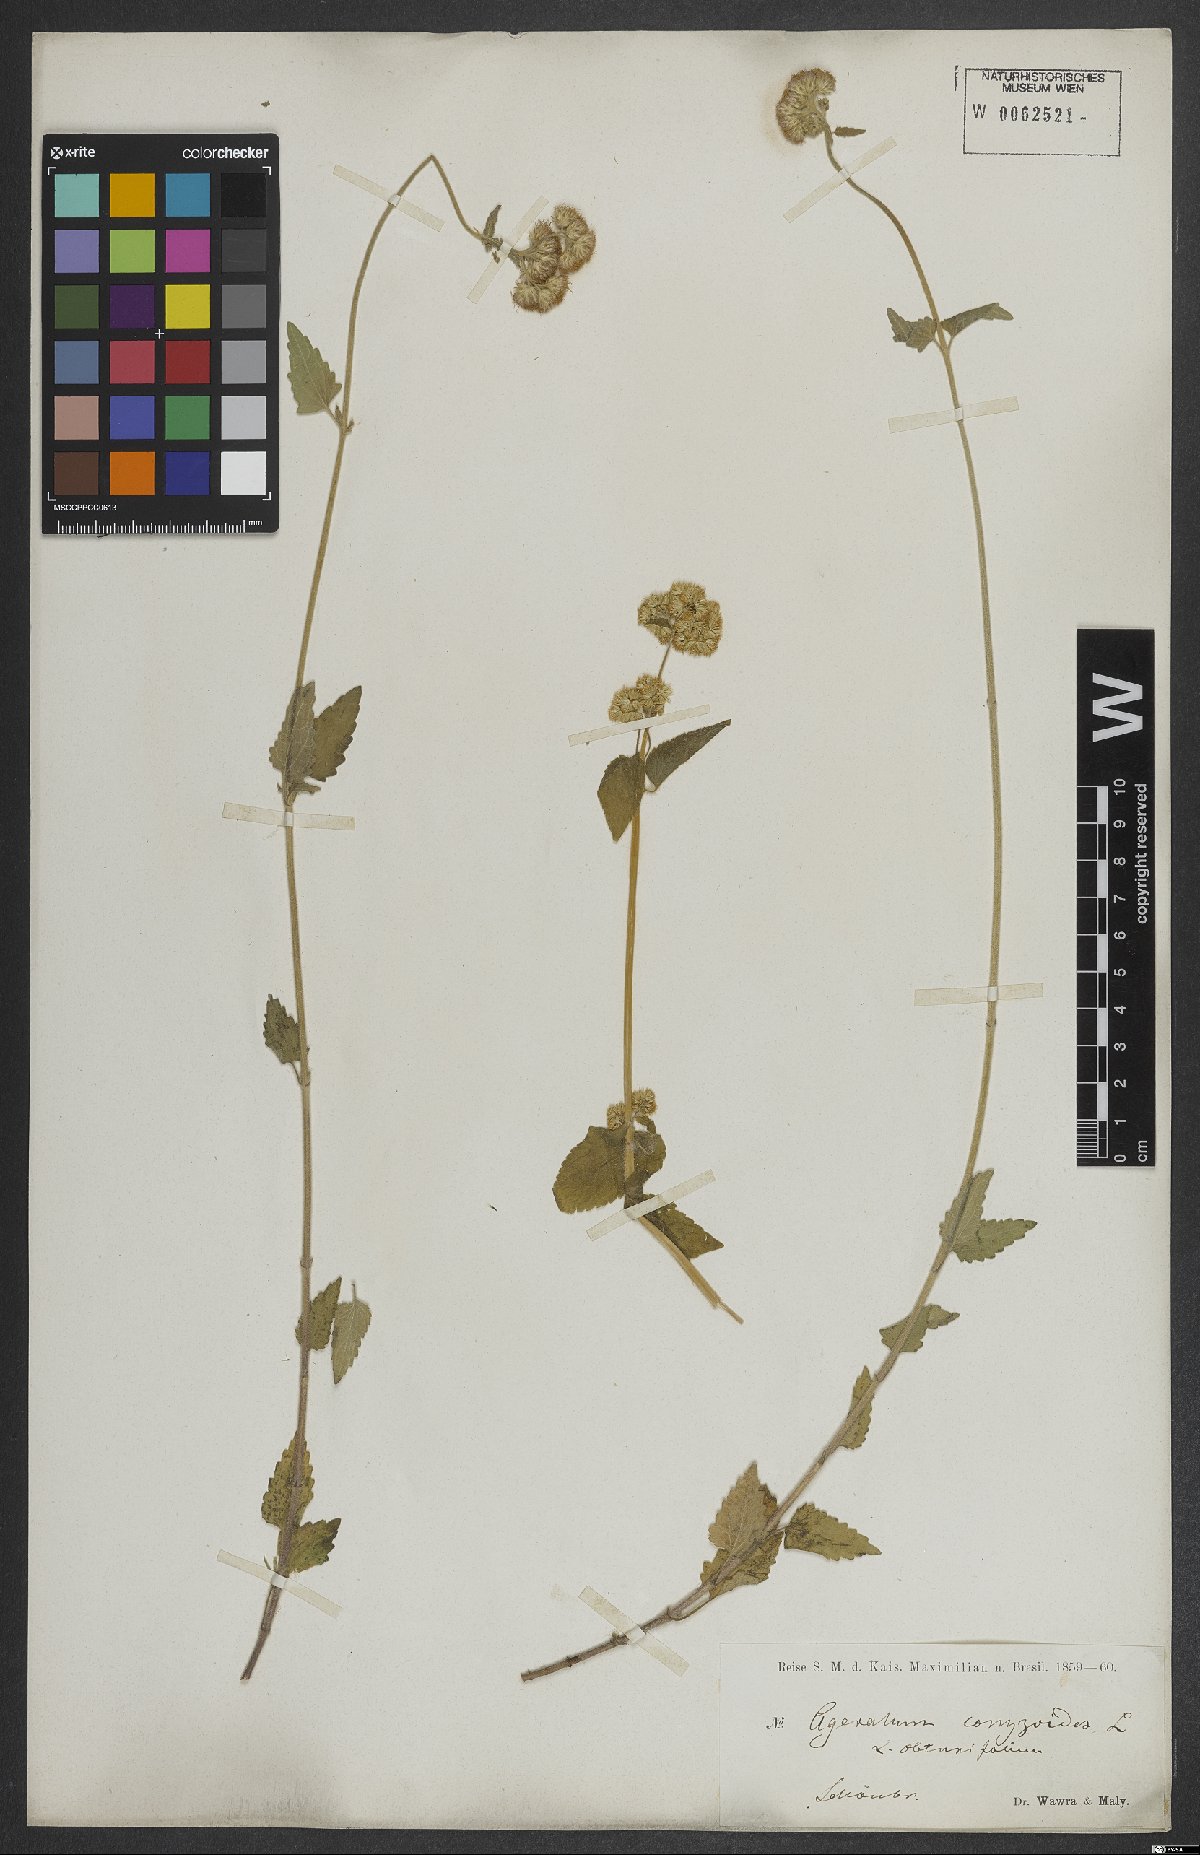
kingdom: Plantae
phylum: Tracheophyta
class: Magnoliopsida
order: Asterales
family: Asteraceae
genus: Ageratum
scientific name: Ageratum conyzoides
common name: Tropical whiteweed
